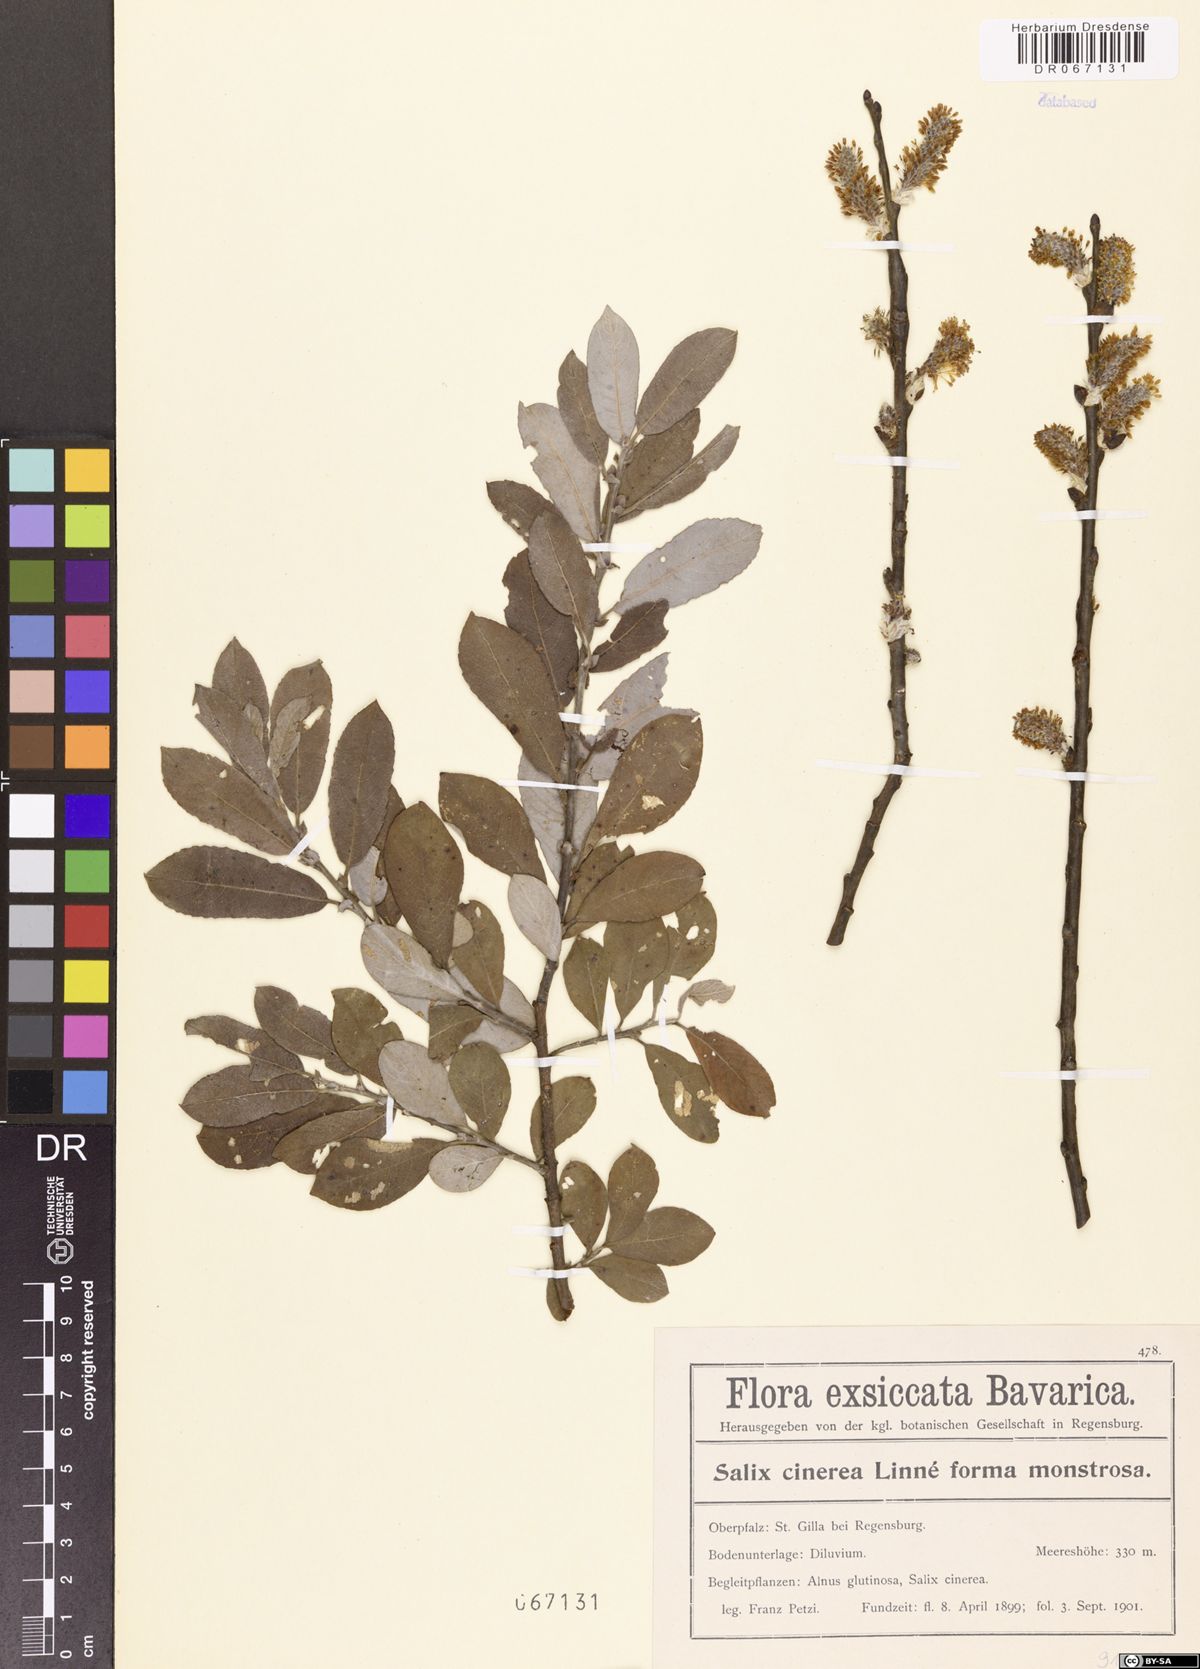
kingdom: Plantae
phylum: Tracheophyta
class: Magnoliopsida
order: Malpighiales
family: Salicaceae
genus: Salix
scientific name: Salix cinerea
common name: Common sallow
